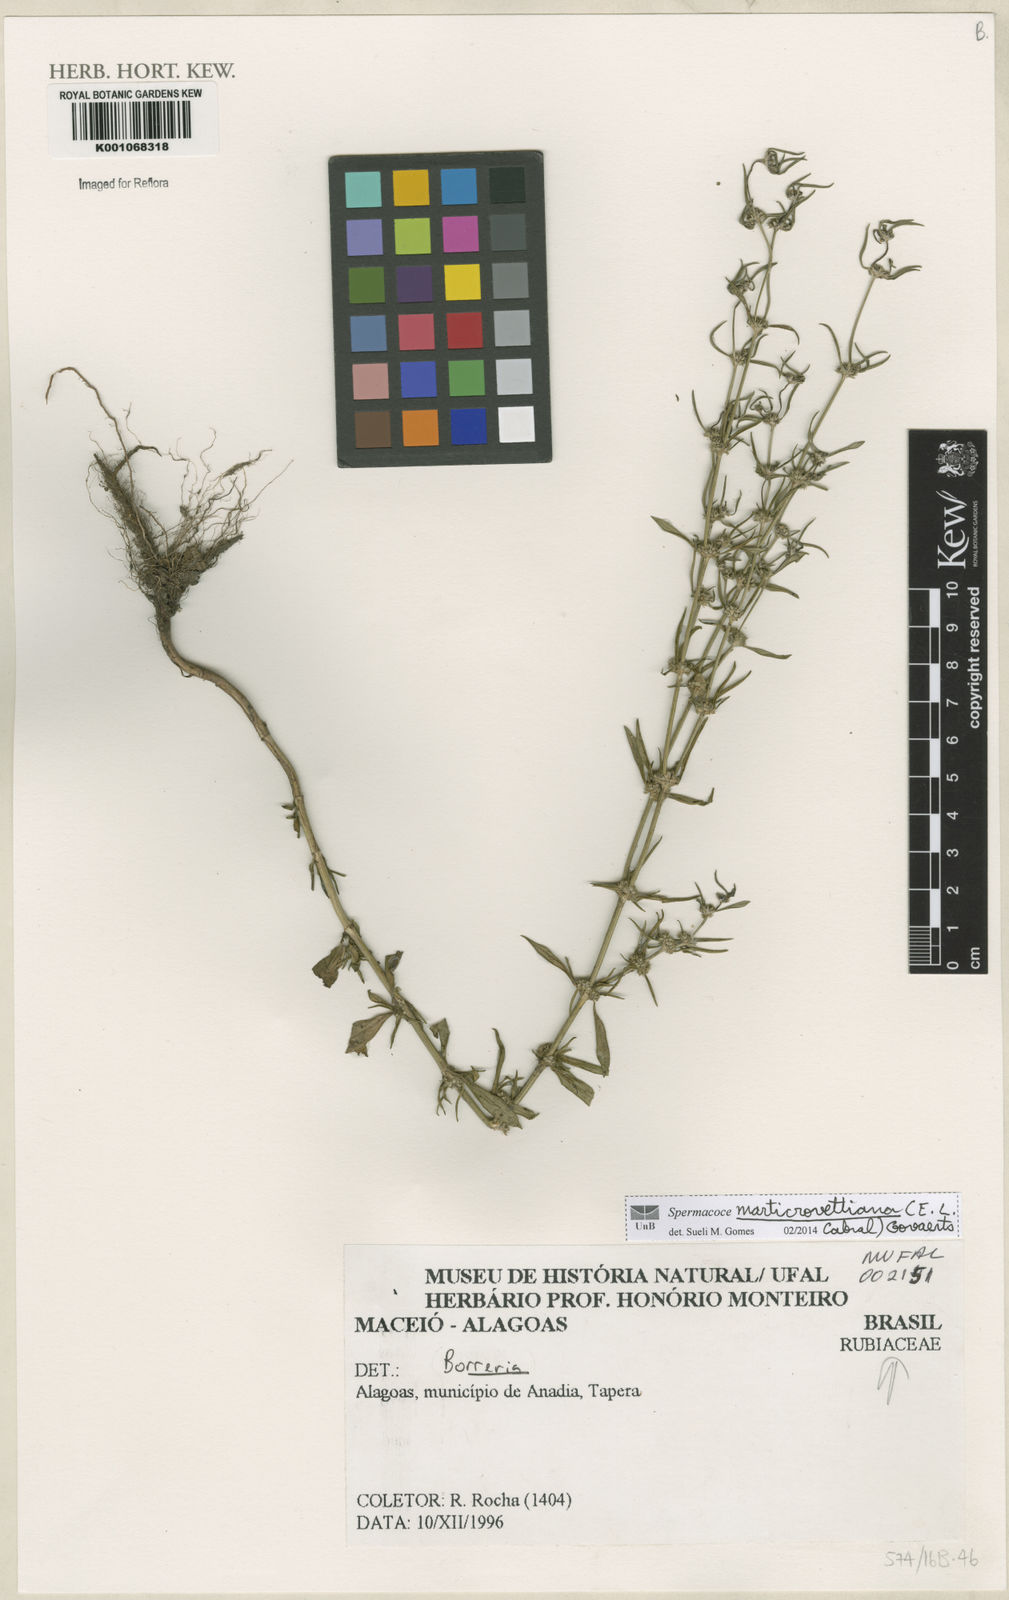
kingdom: Plantae
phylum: Tracheophyta
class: Magnoliopsida
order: Gentianales
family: Rubiaceae
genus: Spermacoce
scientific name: Spermacoce marticrovettiana
